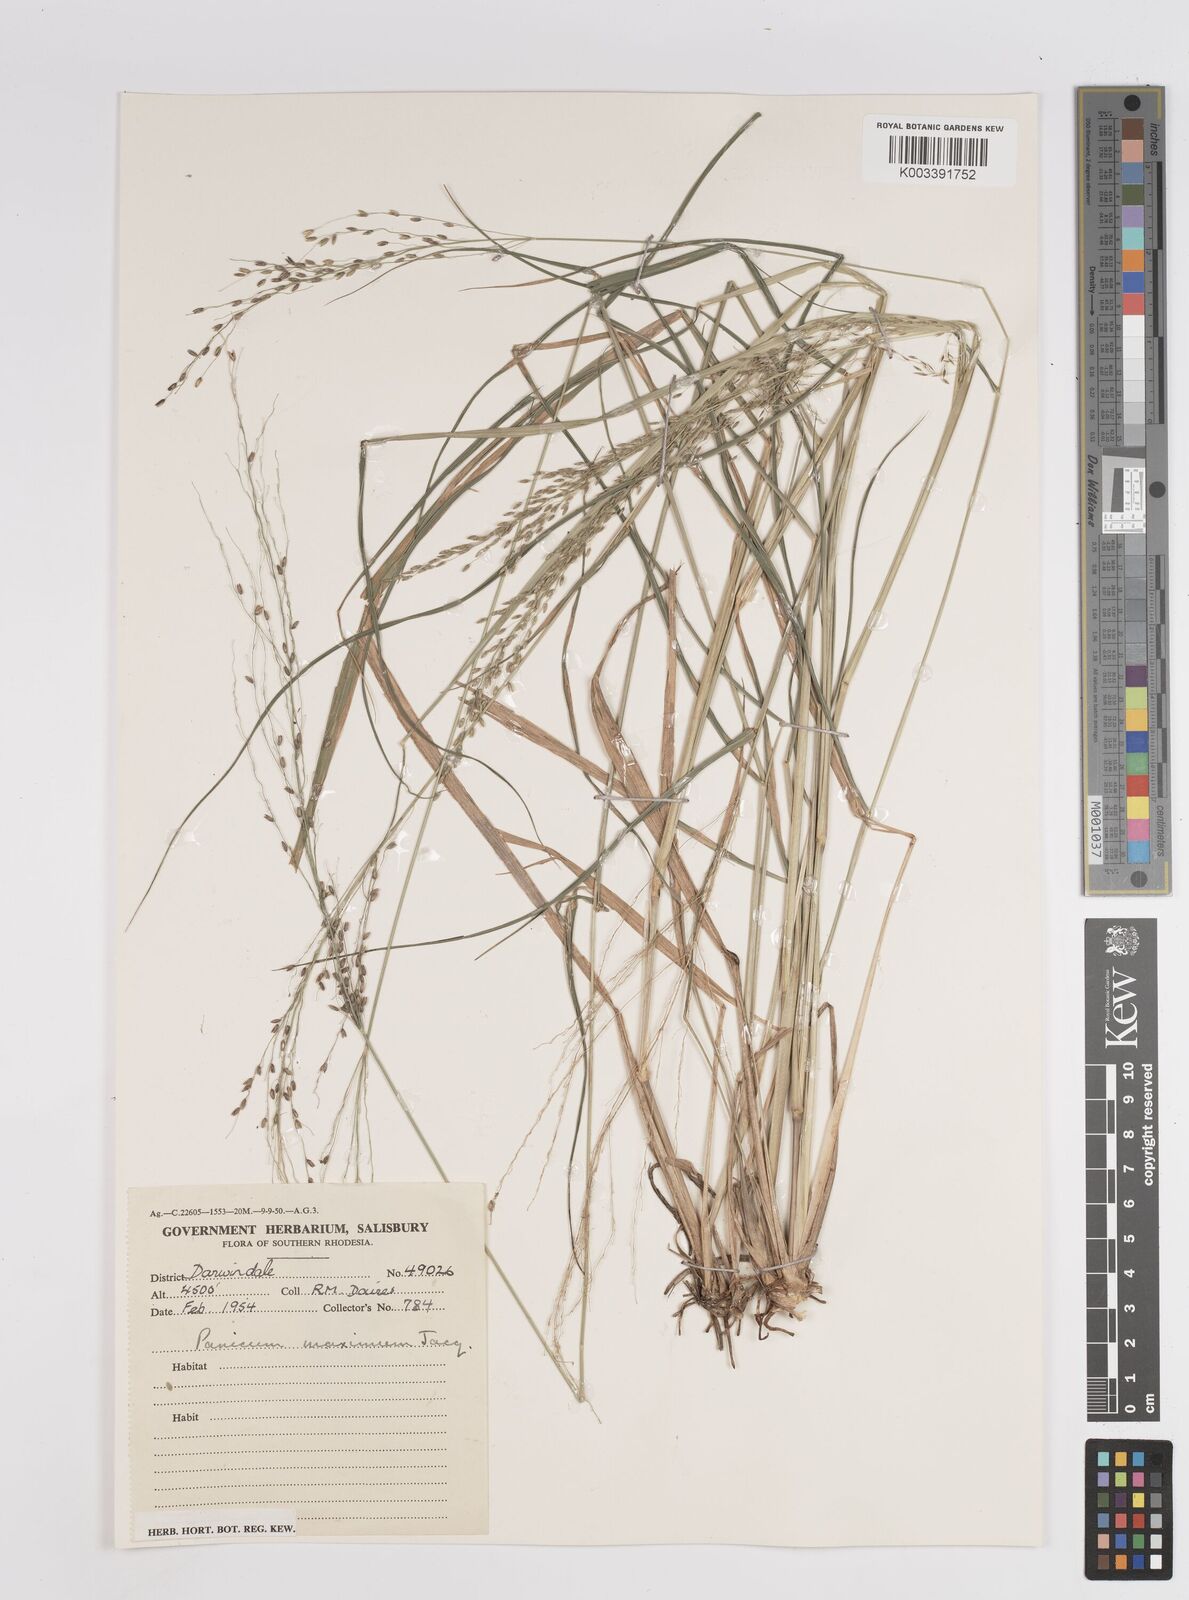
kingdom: Plantae
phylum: Tracheophyta
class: Liliopsida
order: Poales
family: Poaceae
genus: Megathyrsus
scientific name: Megathyrsus maximus
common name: Guineagrass
